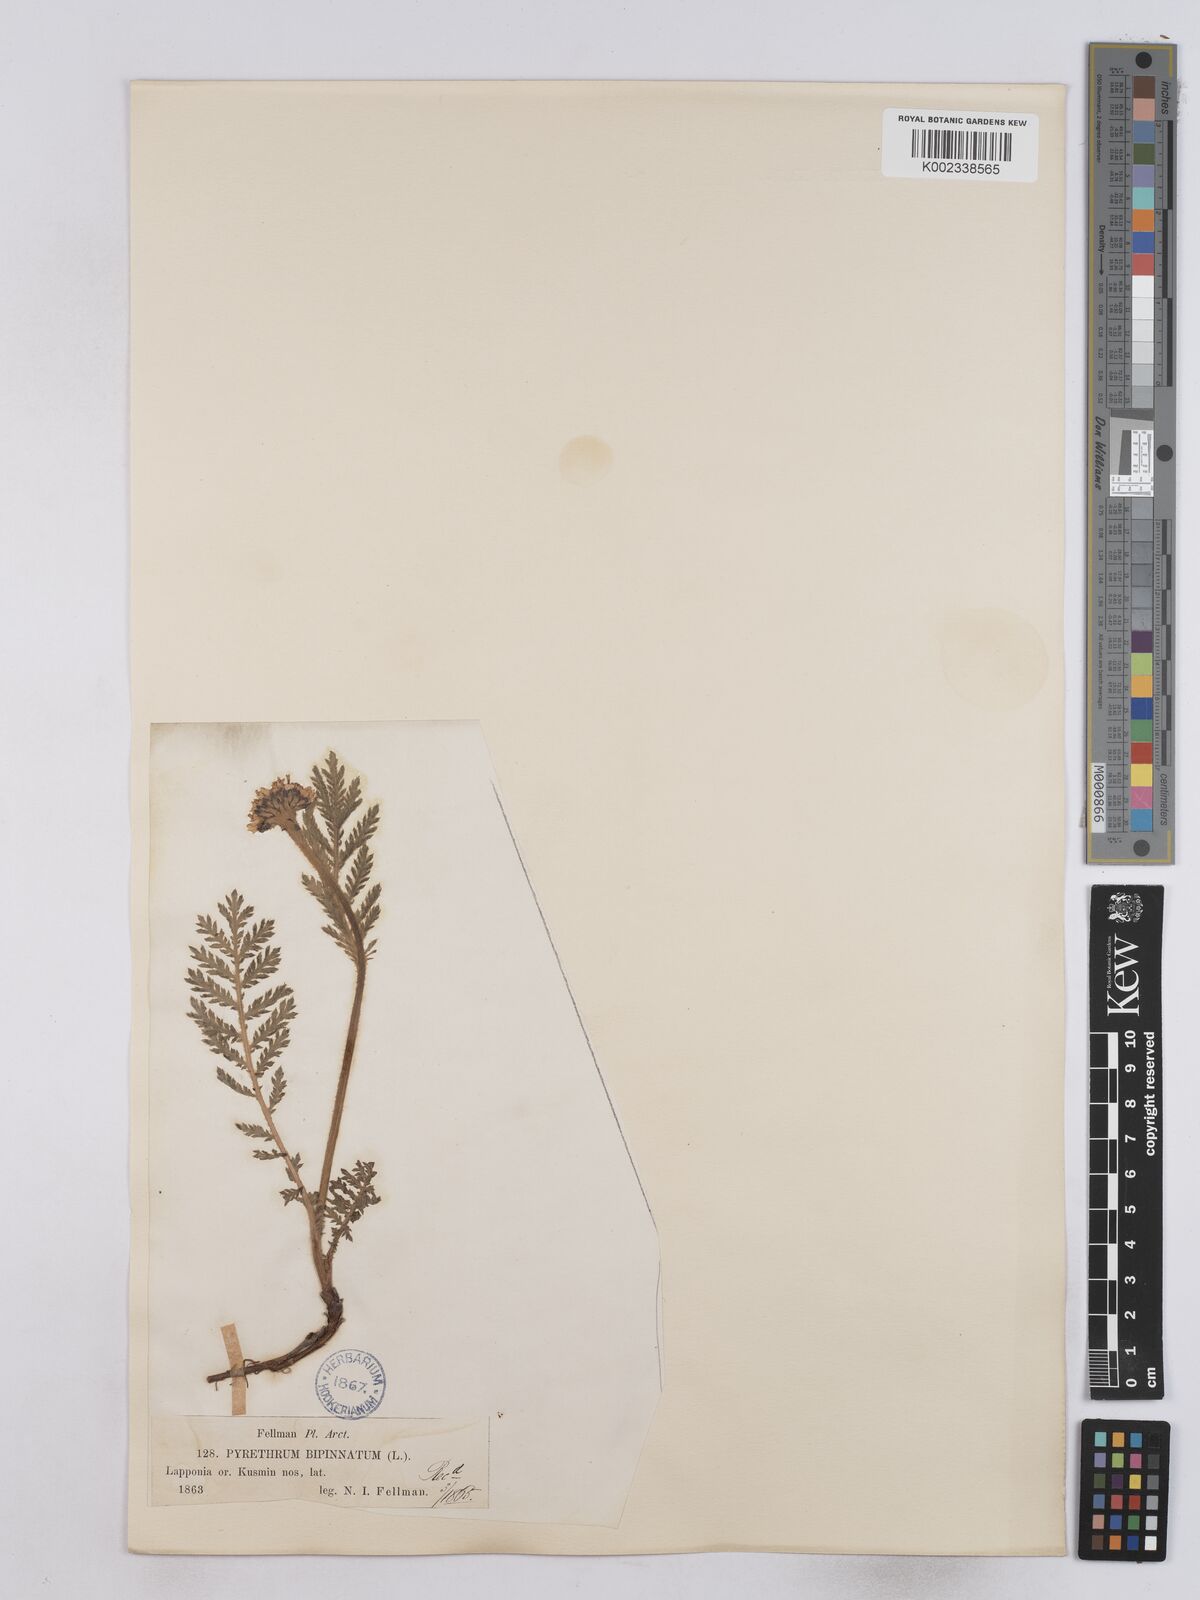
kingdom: Plantae
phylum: Tracheophyta
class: Magnoliopsida
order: Asterales
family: Asteraceae
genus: Tanacetum
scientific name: Tanacetum
